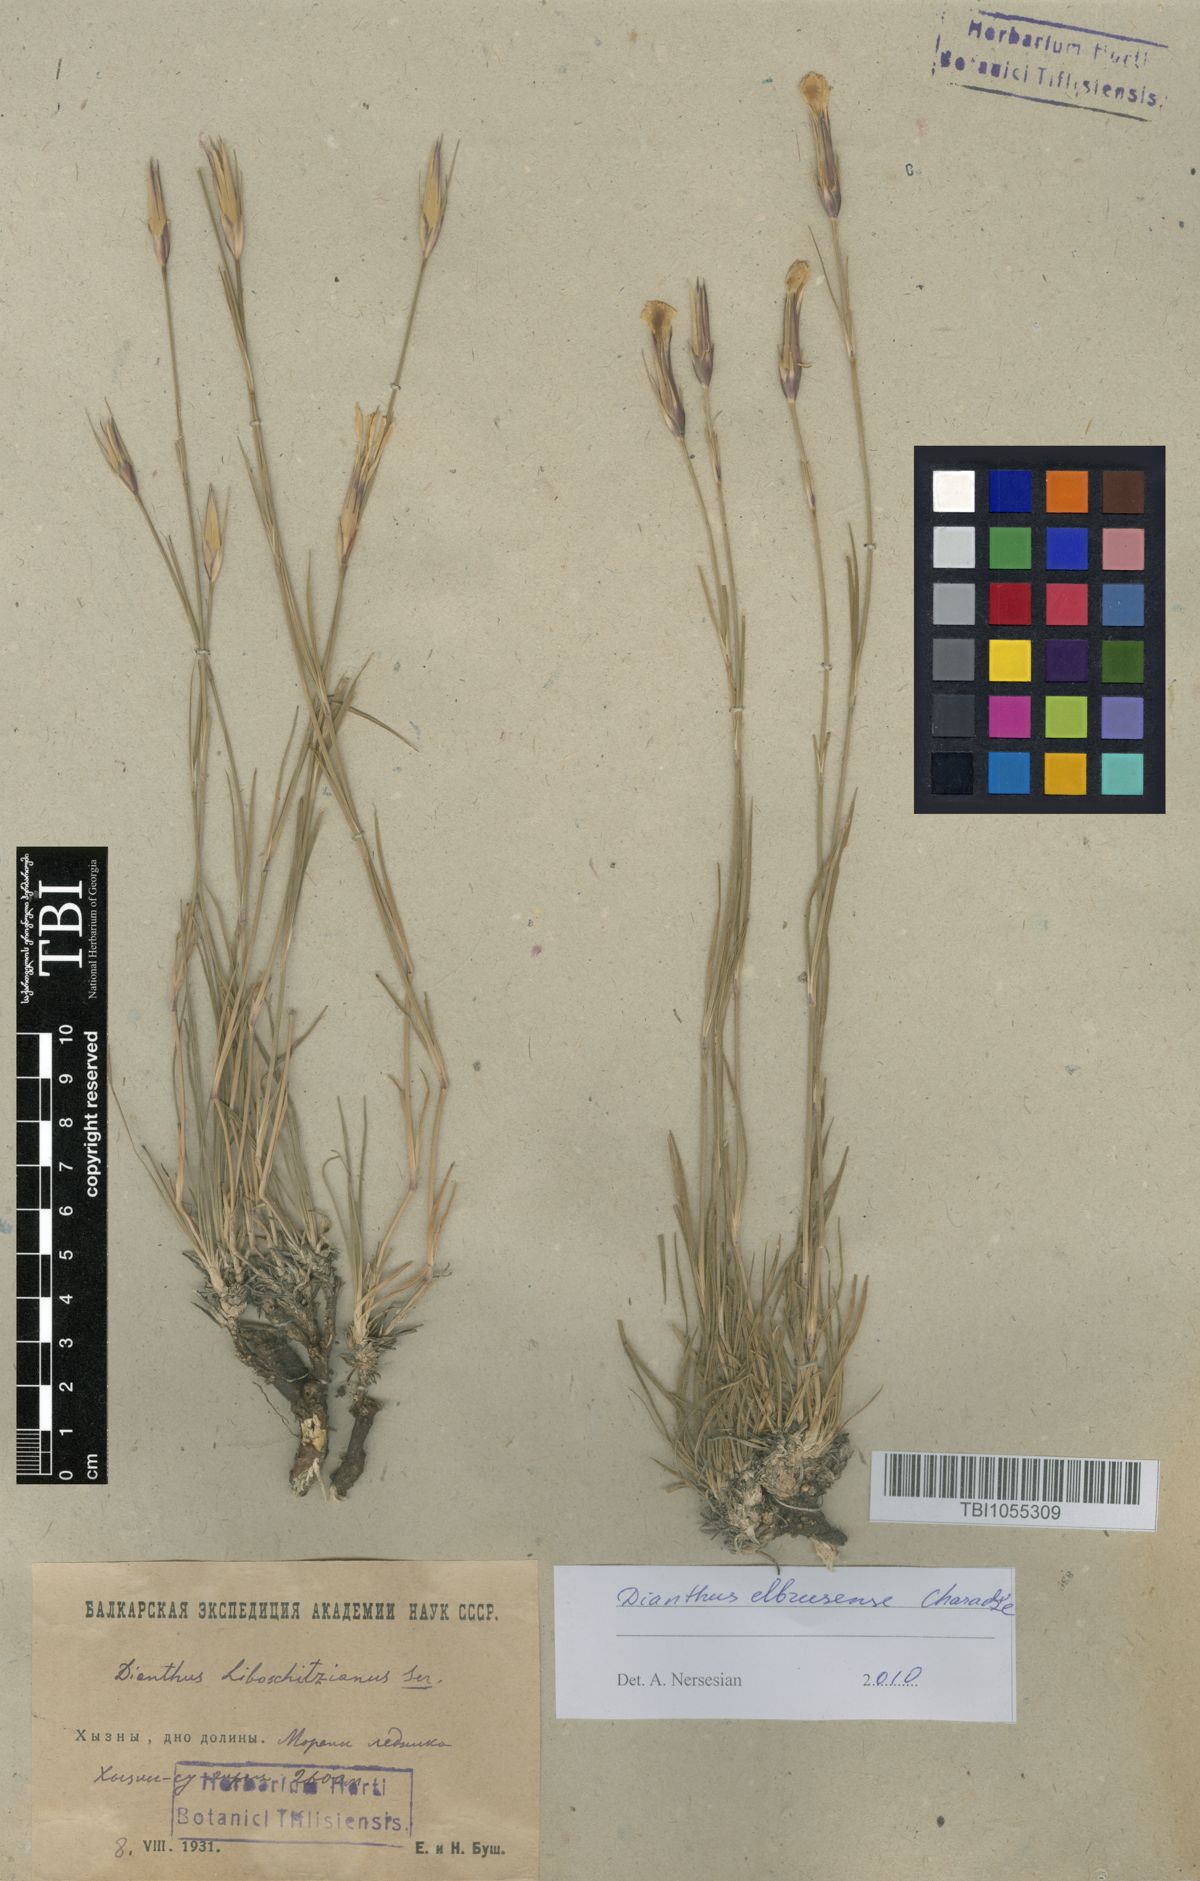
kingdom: Plantae
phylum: Tracheophyta
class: Magnoliopsida
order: Caryophyllales
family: Caryophyllaceae
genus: Dianthus
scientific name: Dianthus cretaceus
